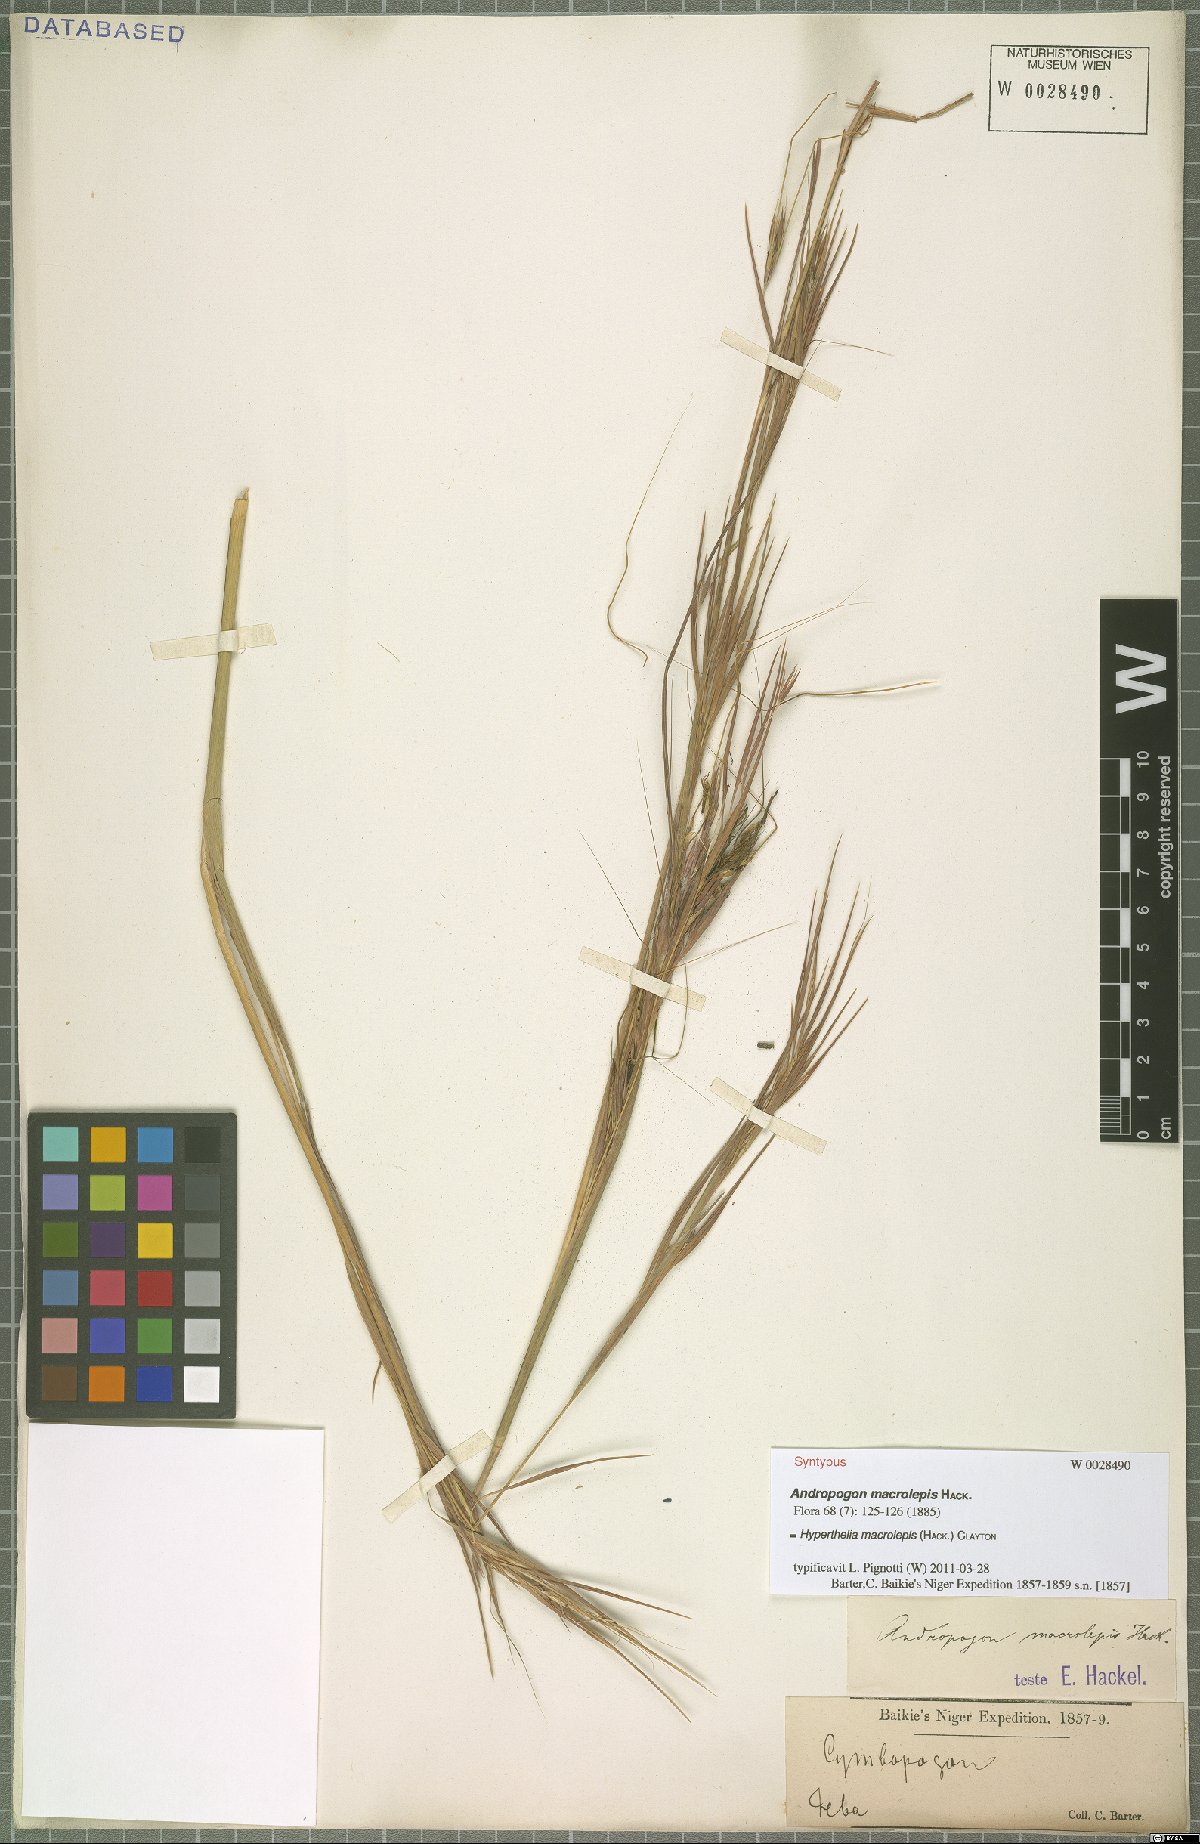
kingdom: Plantae
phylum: Tracheophyta
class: Liliopsida
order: Poales
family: Poaceae
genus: Hyperthelia
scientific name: Hyperthelia dissoluta
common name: Yellow thatching grass
